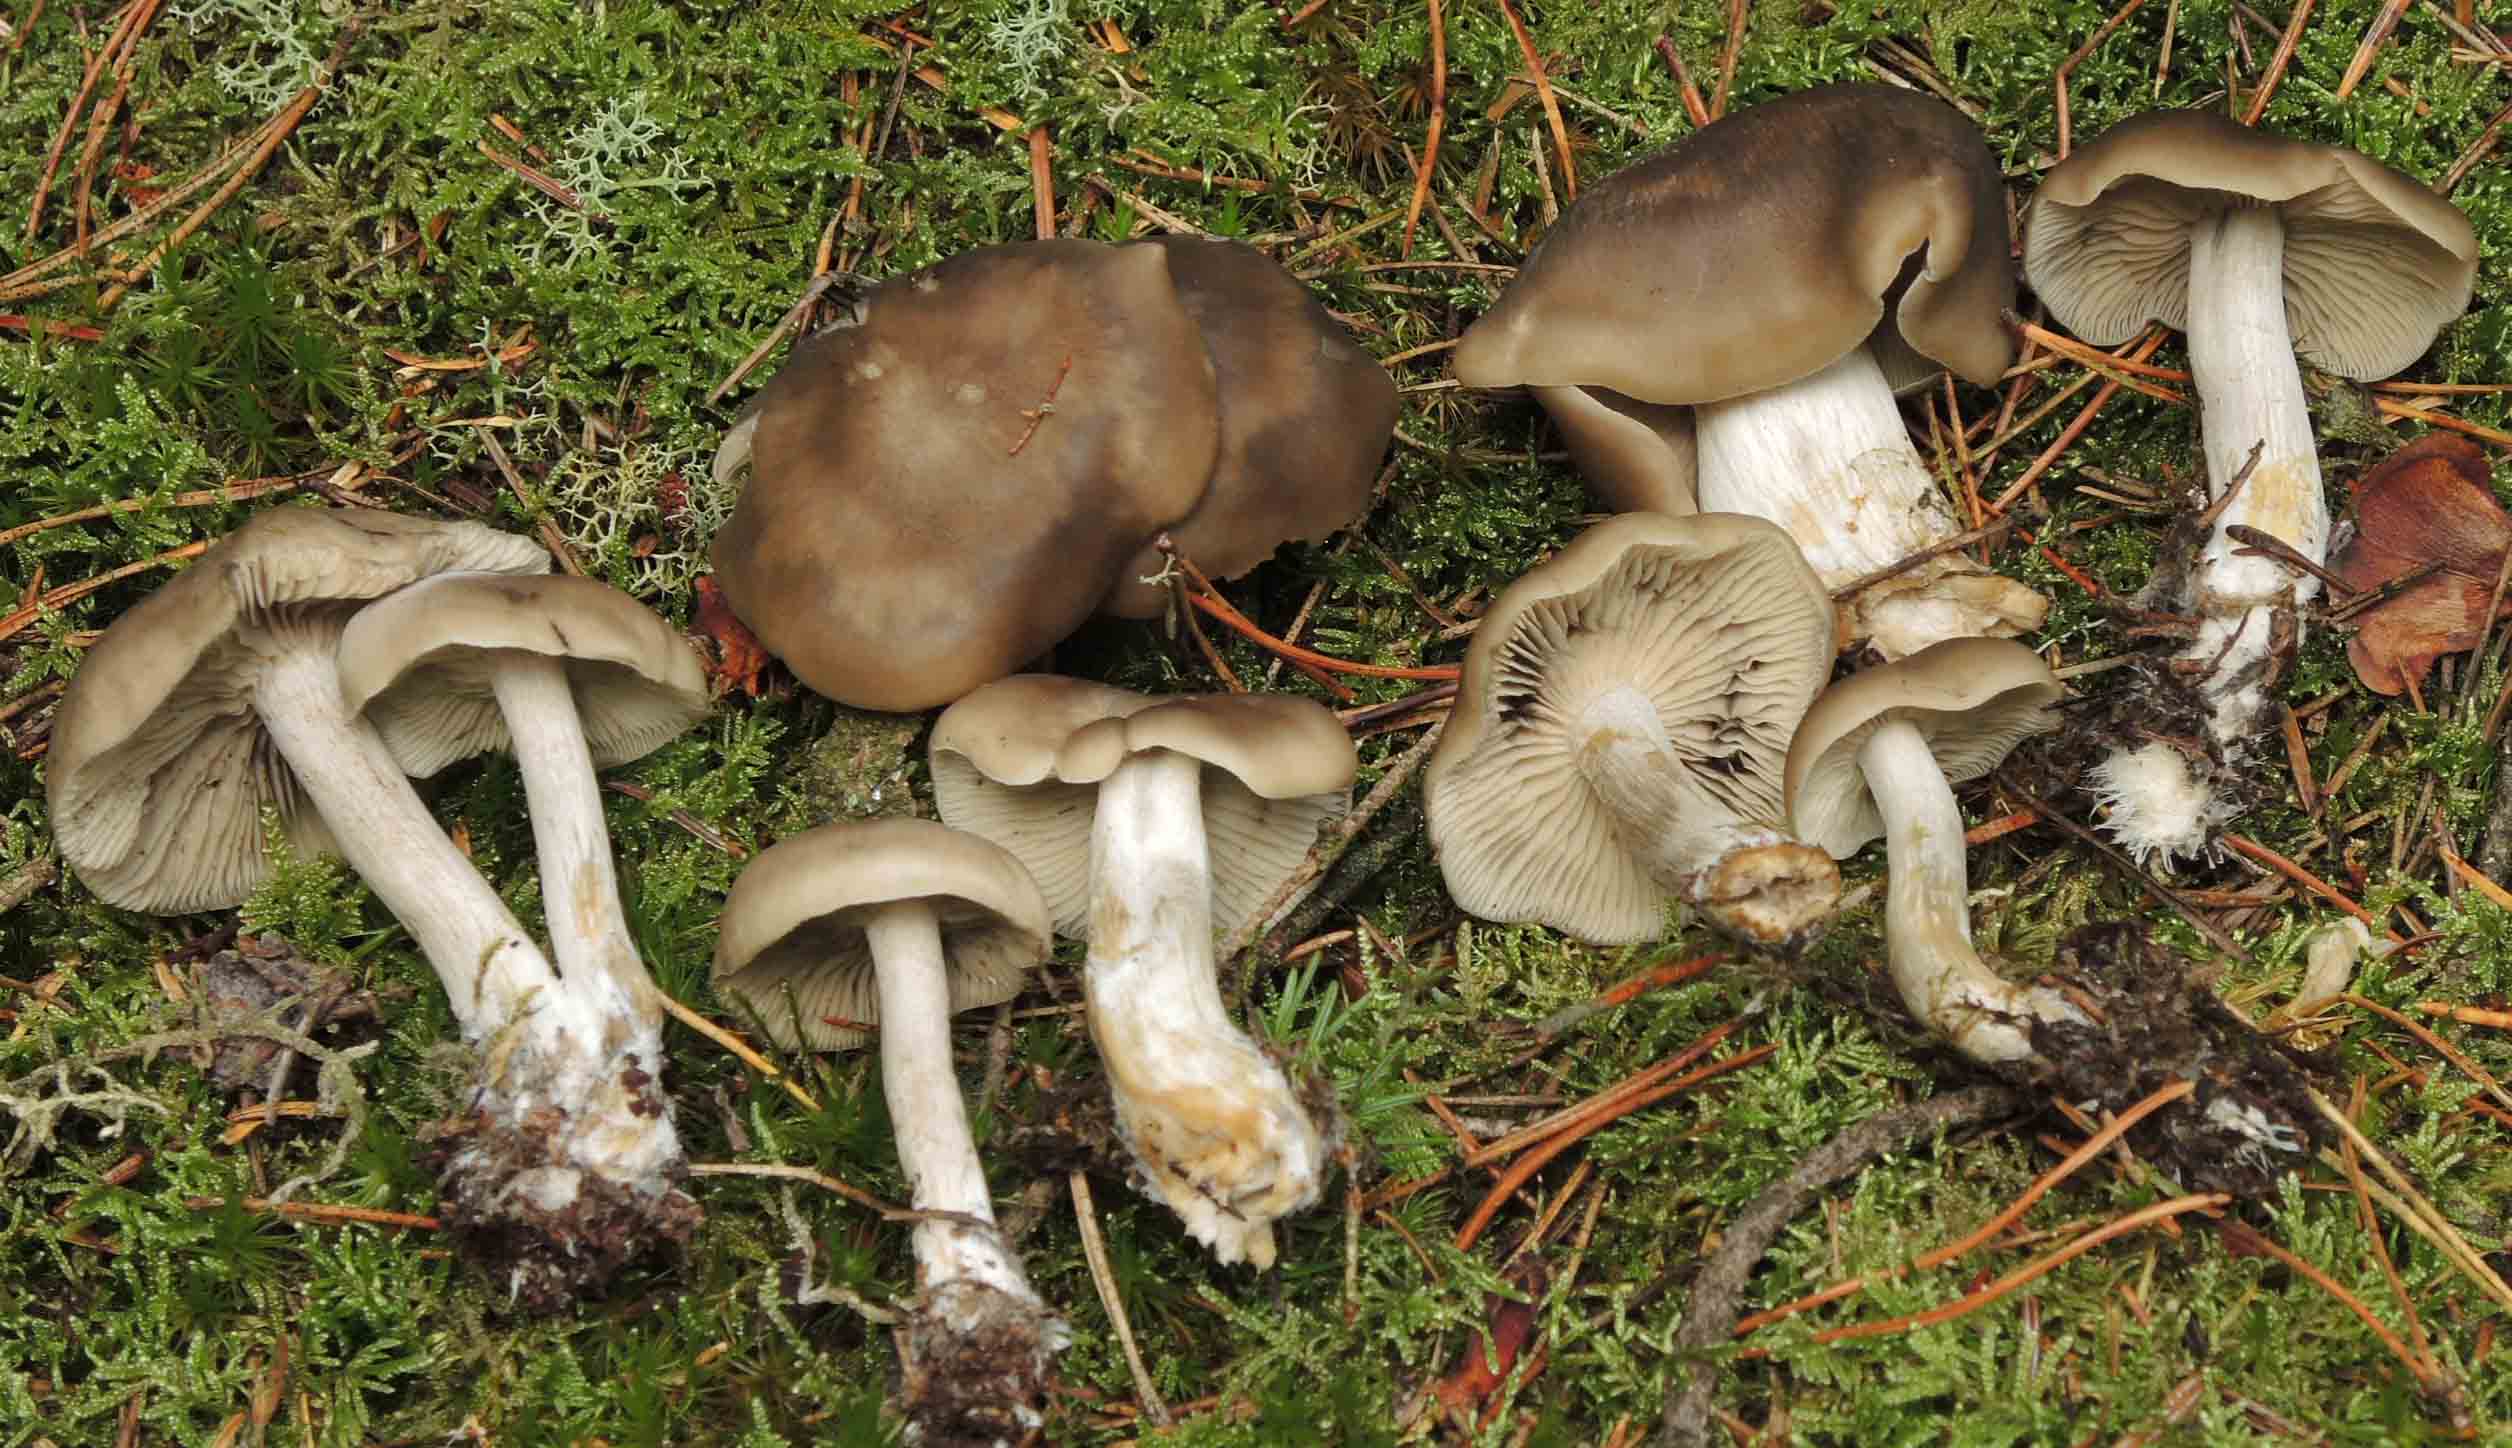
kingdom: Fungi
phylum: Basidiomycota
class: Agaricomycetes
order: Agaricales
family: Lyophyllaceae
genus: Lyophyllum
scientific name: Lyophyllum semitale
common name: sværtende gråblad
